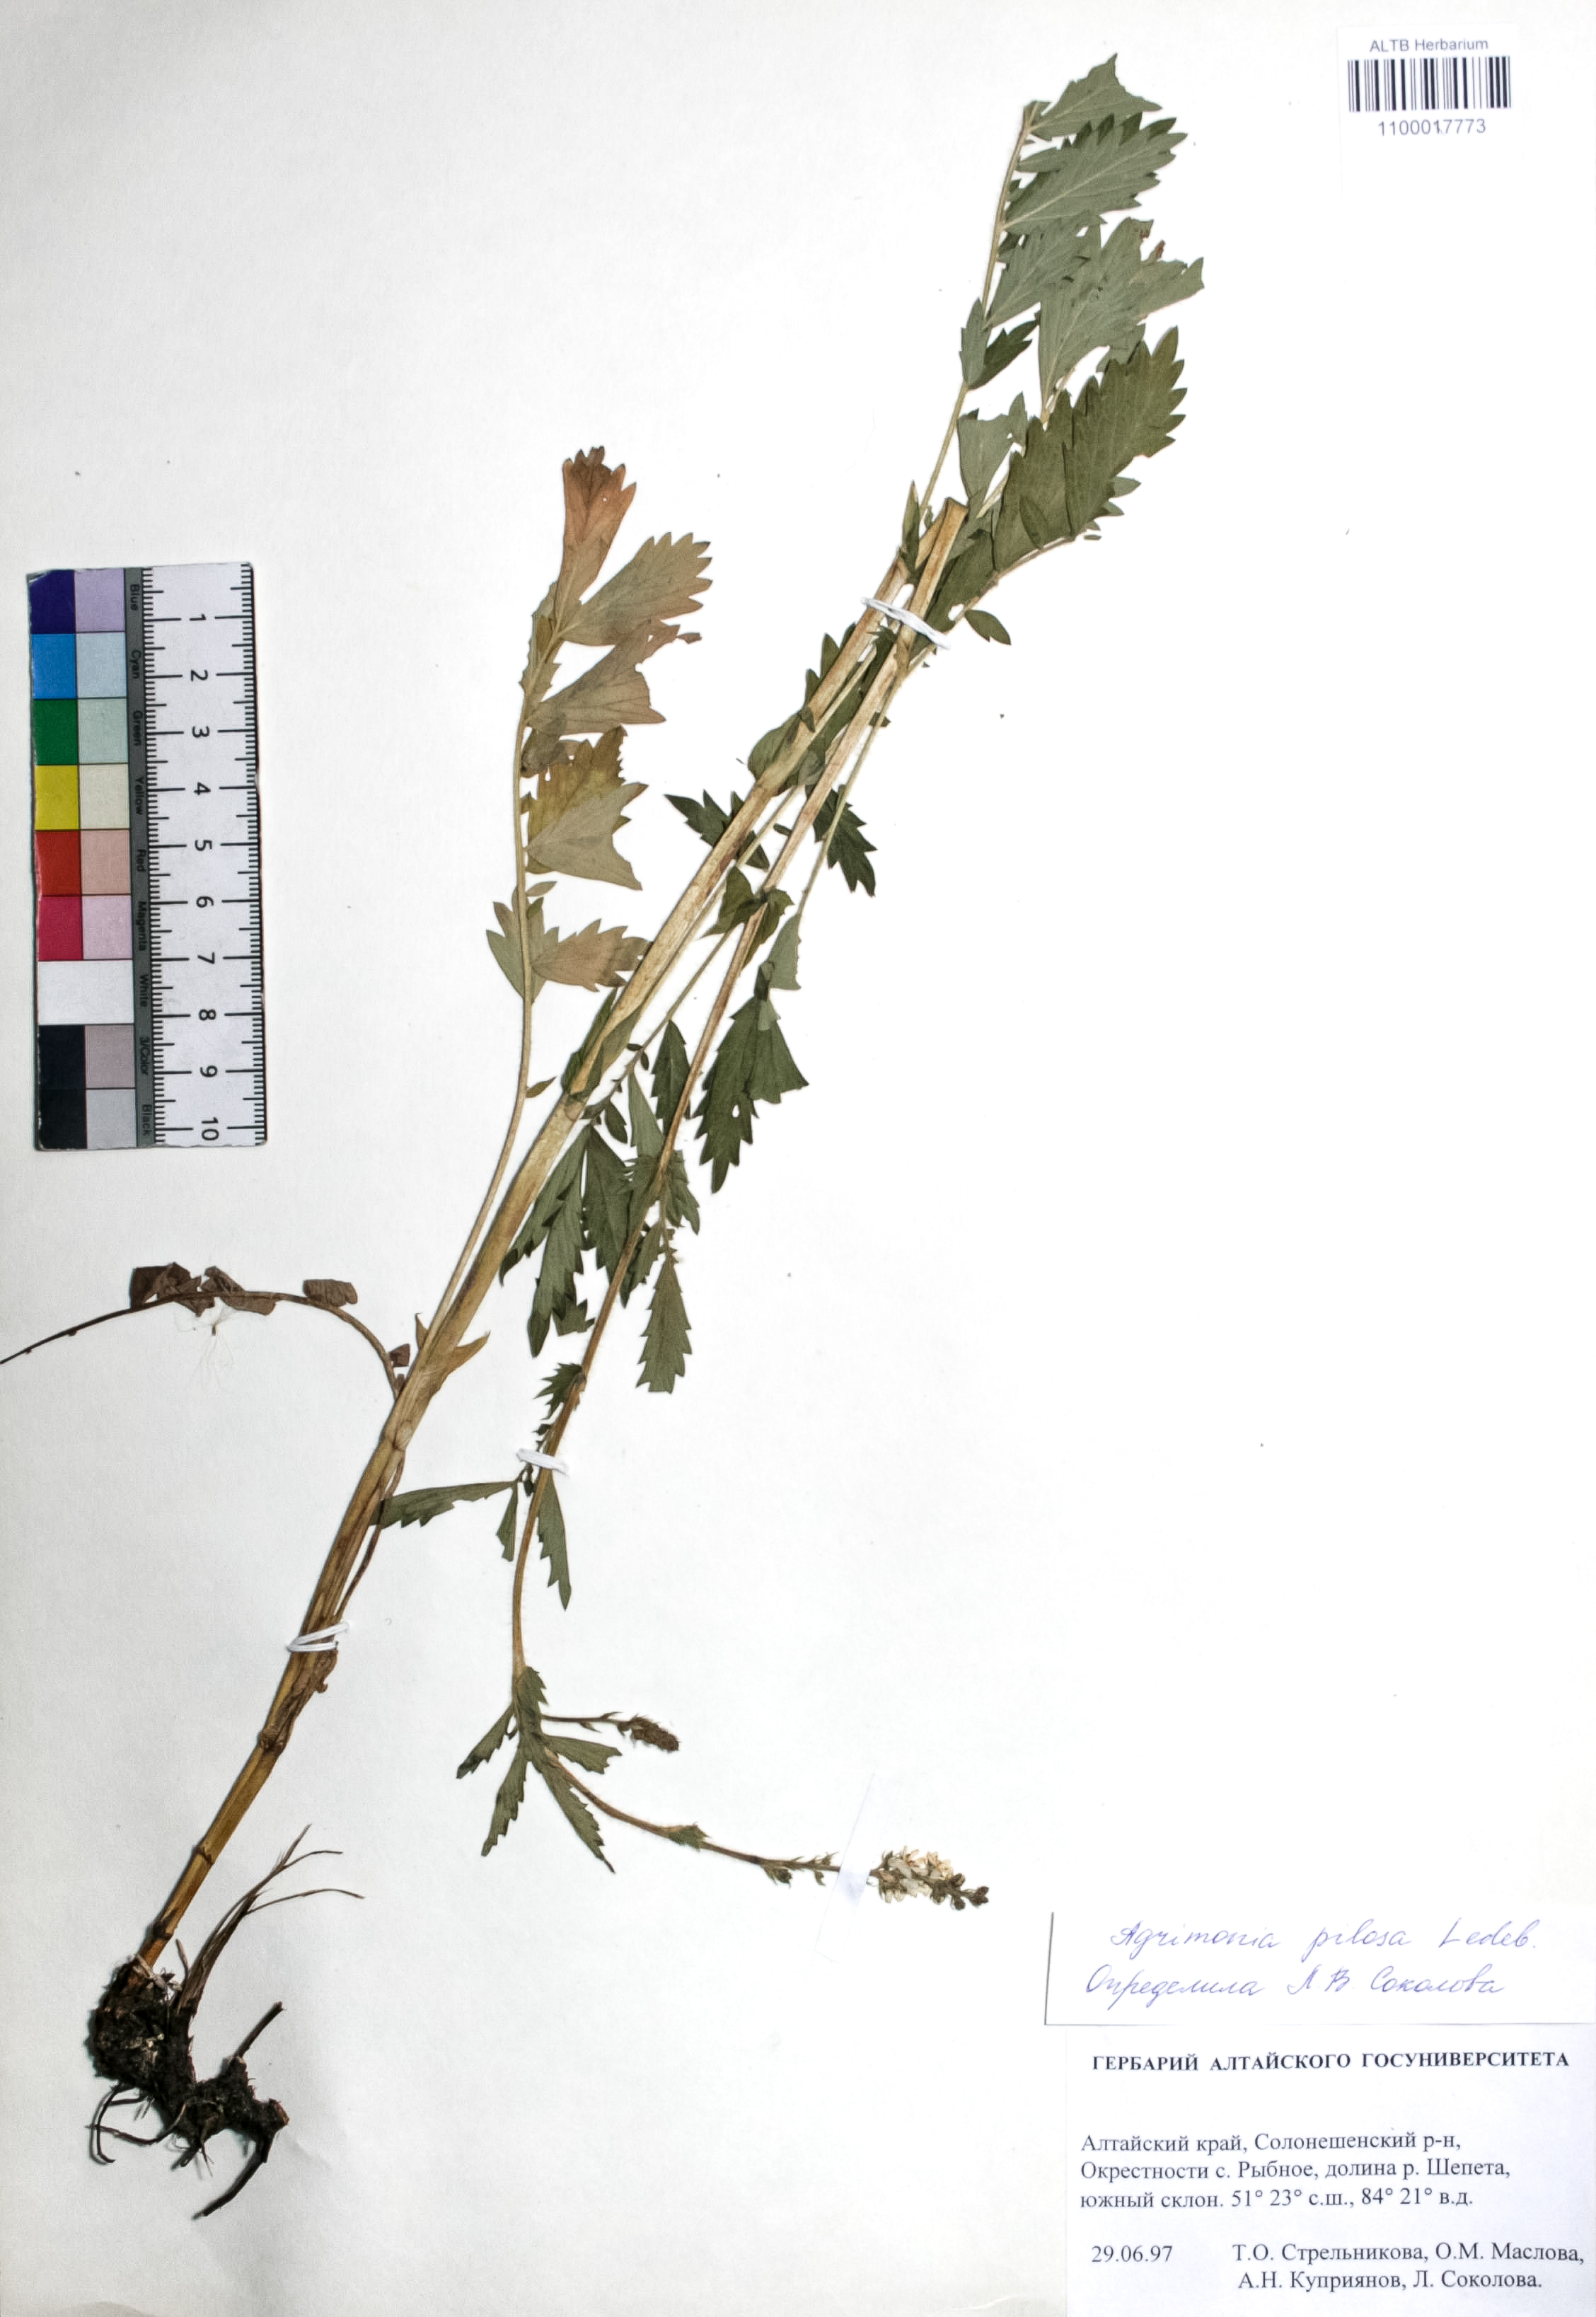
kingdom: Plantae
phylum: Tracheophyta
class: Magnoliopsida
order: Rosales
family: Rosaceae
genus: Agrimonia
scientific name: Agrimonia pilosa
